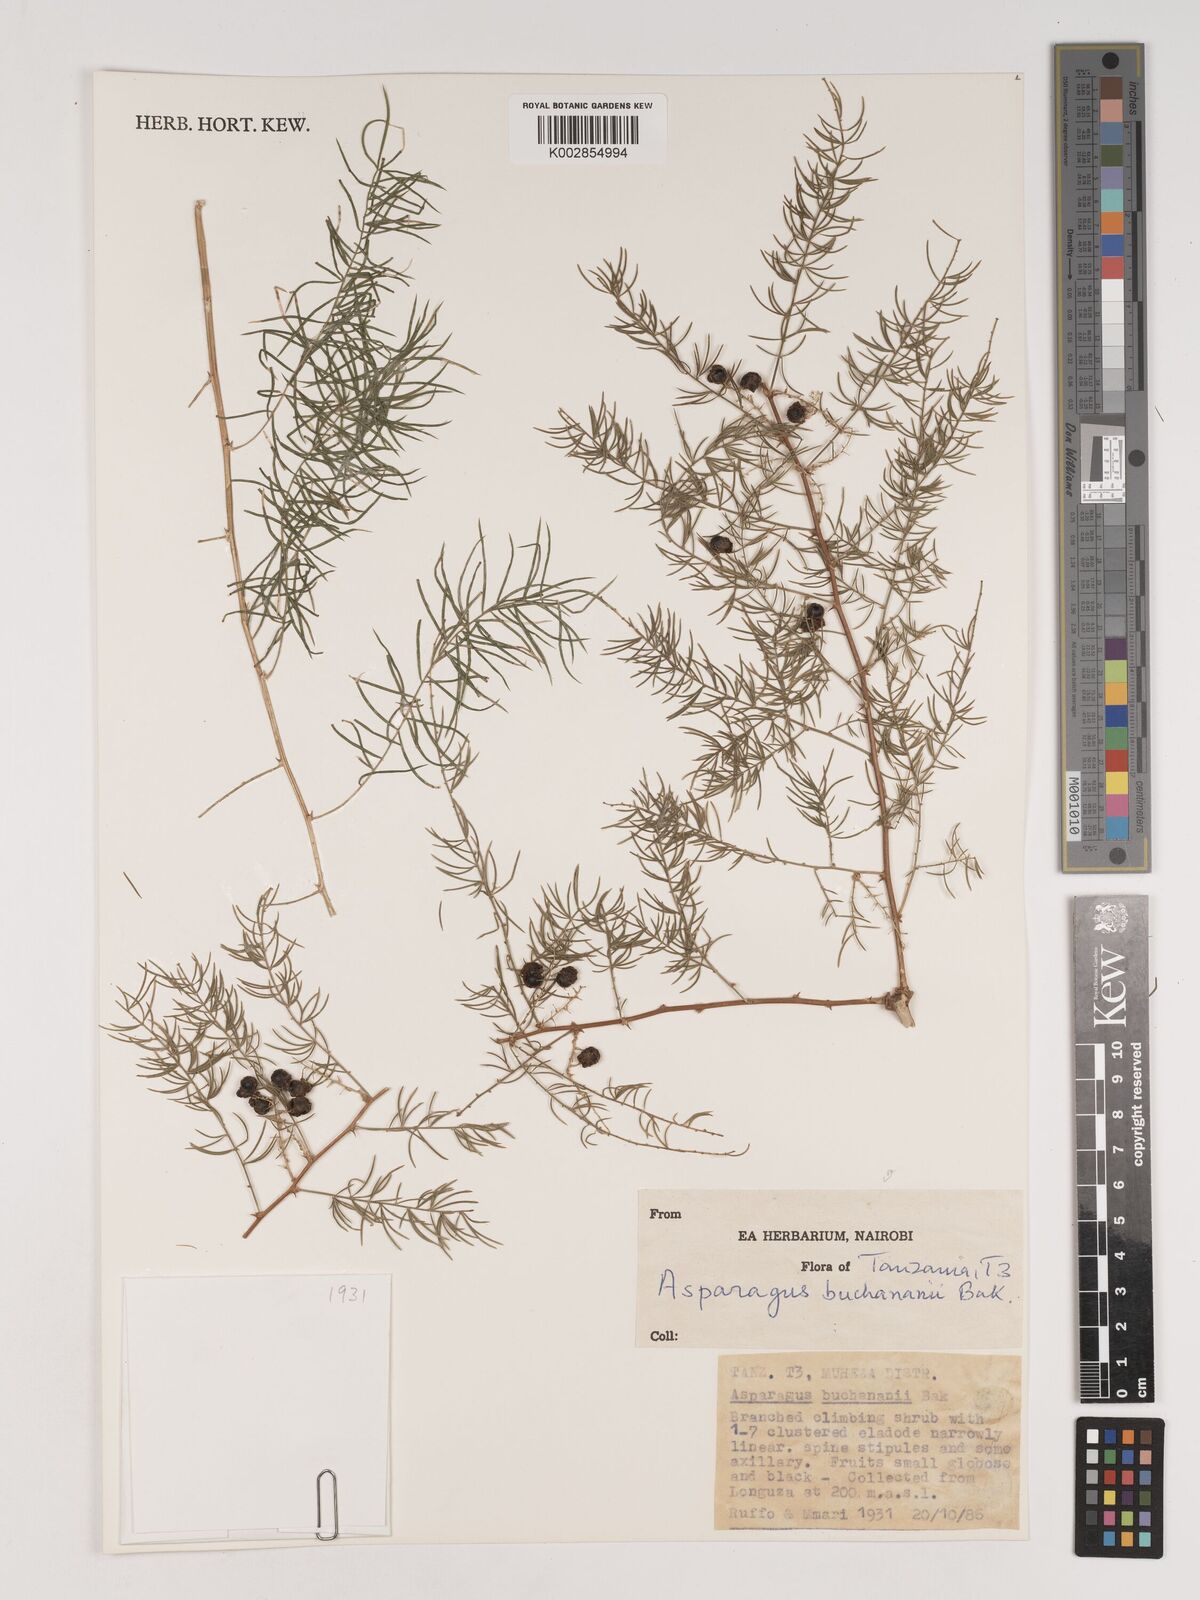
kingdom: Plantae
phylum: Tracheophyta
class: Liliopsida
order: Asparagales
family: Asparagaceae
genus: Asparagus
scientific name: Asparagus buchananii
